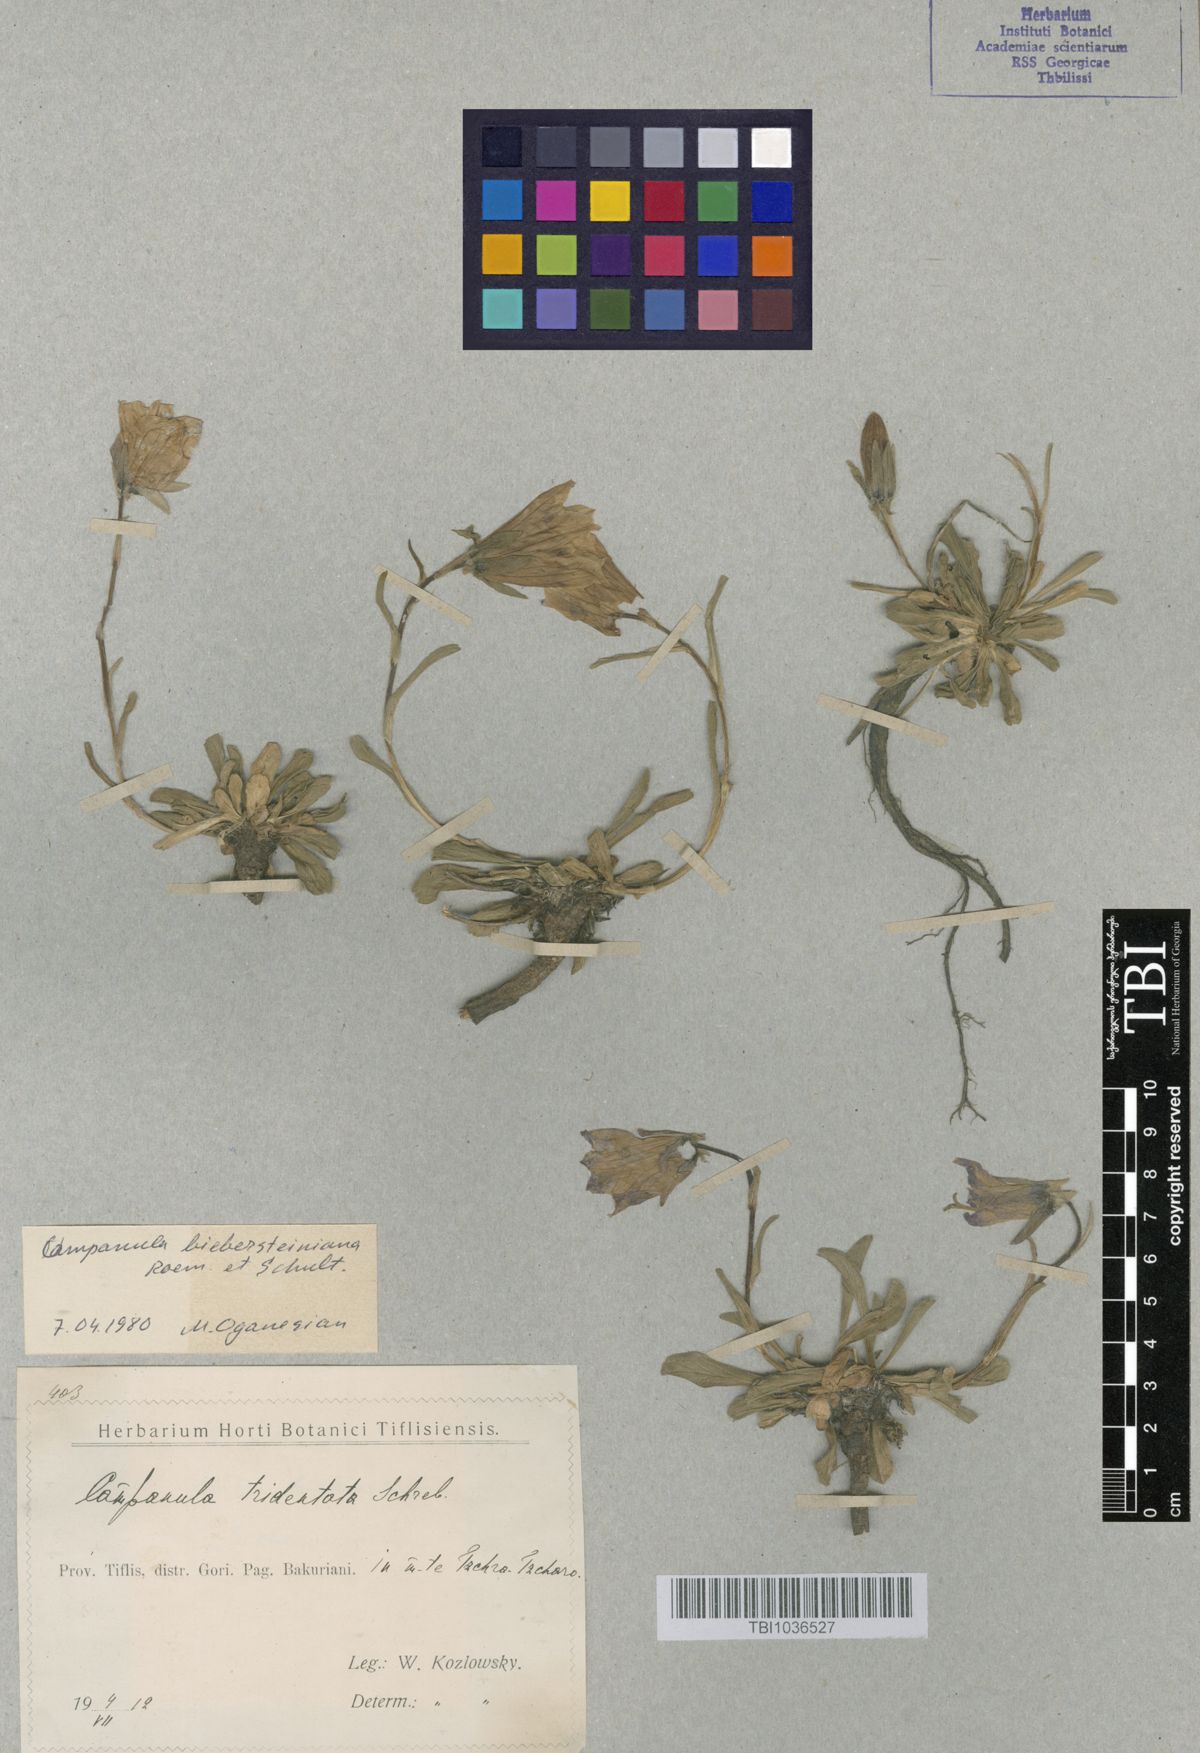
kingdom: Plantae
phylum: Tracheophyta
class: Magnoliopsida
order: Asterales
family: Campanulaceae
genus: Campanula
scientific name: Campanula tridentata
